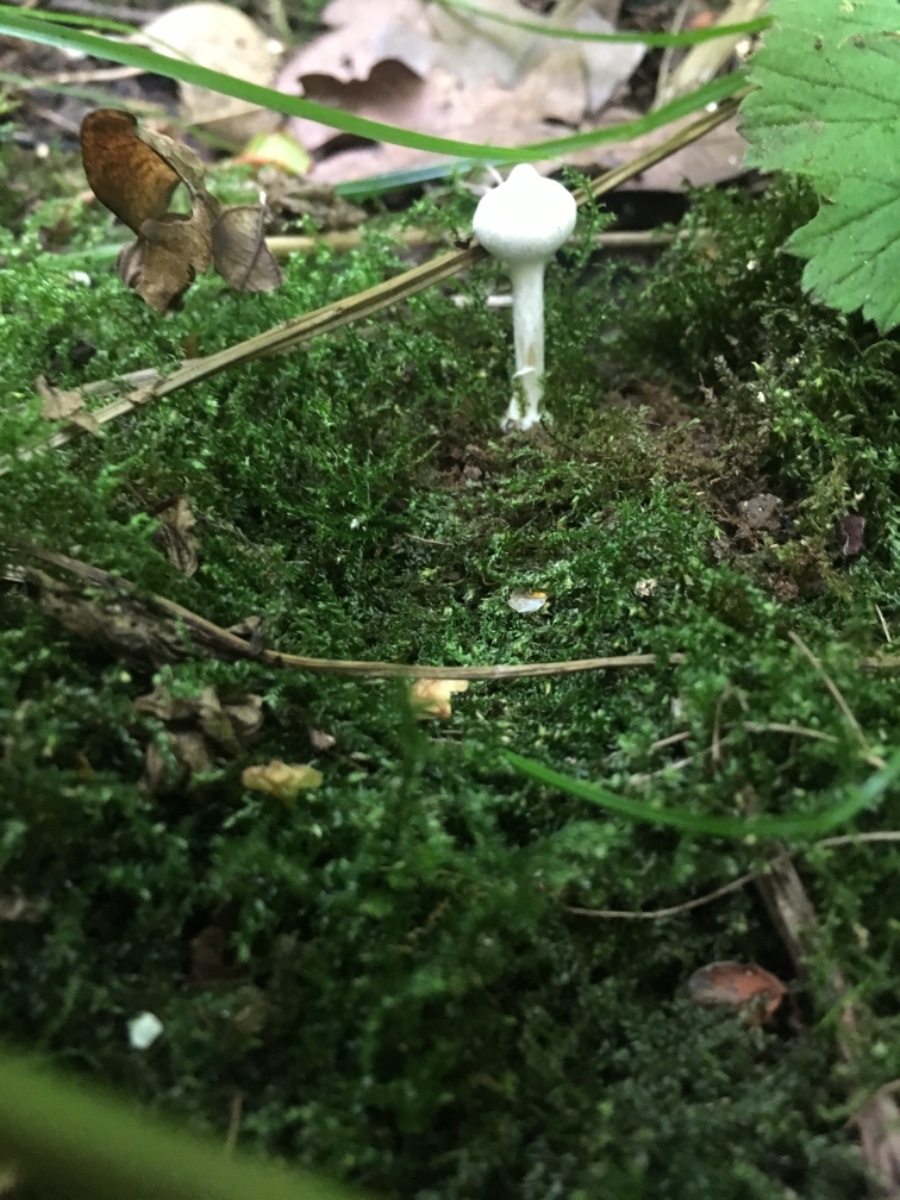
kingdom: Fungi
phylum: Basidiomycota
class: Agaricomycetes
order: Agaricales
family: Inocybaceae
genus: Inocybe
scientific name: Inocybe paludinella
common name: mose-trævlhat
